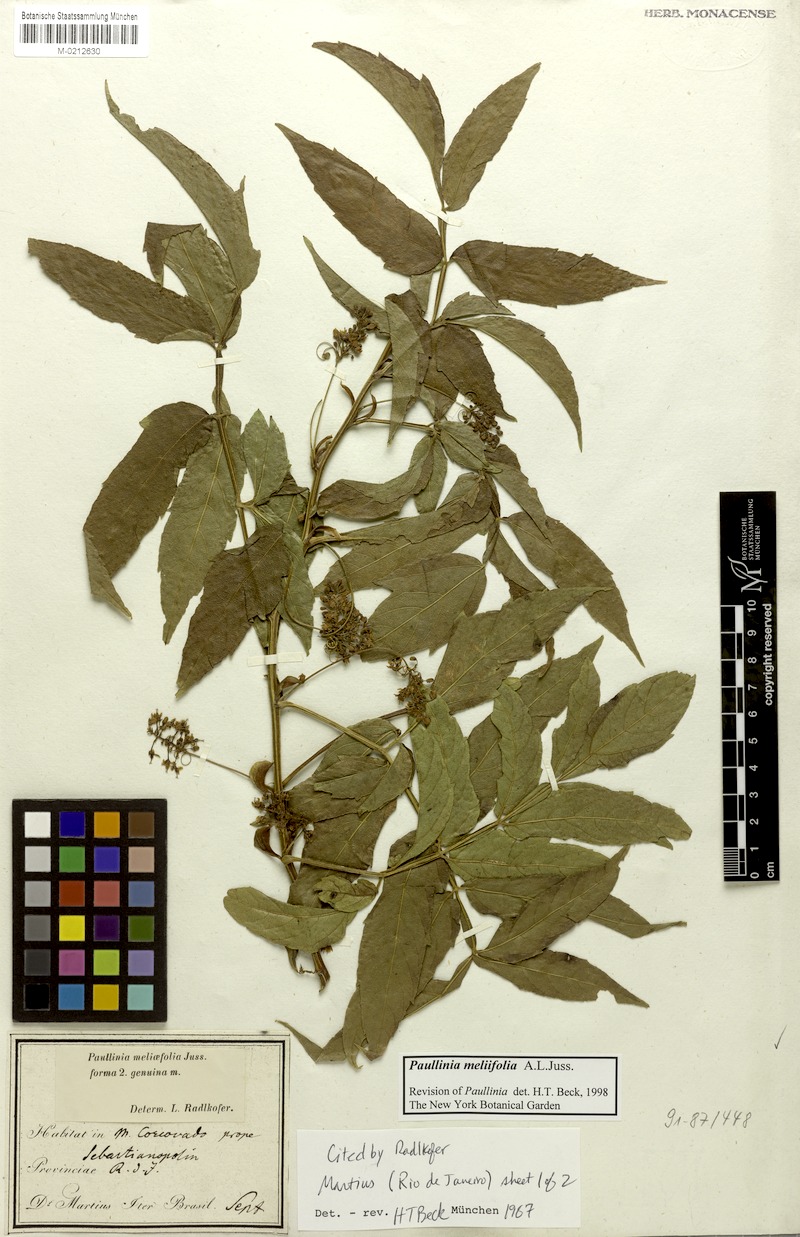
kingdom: Plantae
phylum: Tracheophyta
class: Magnoliopsida
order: Sapindales
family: Sapindaceae
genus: Paullinia
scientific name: Paullinia meliifolia
